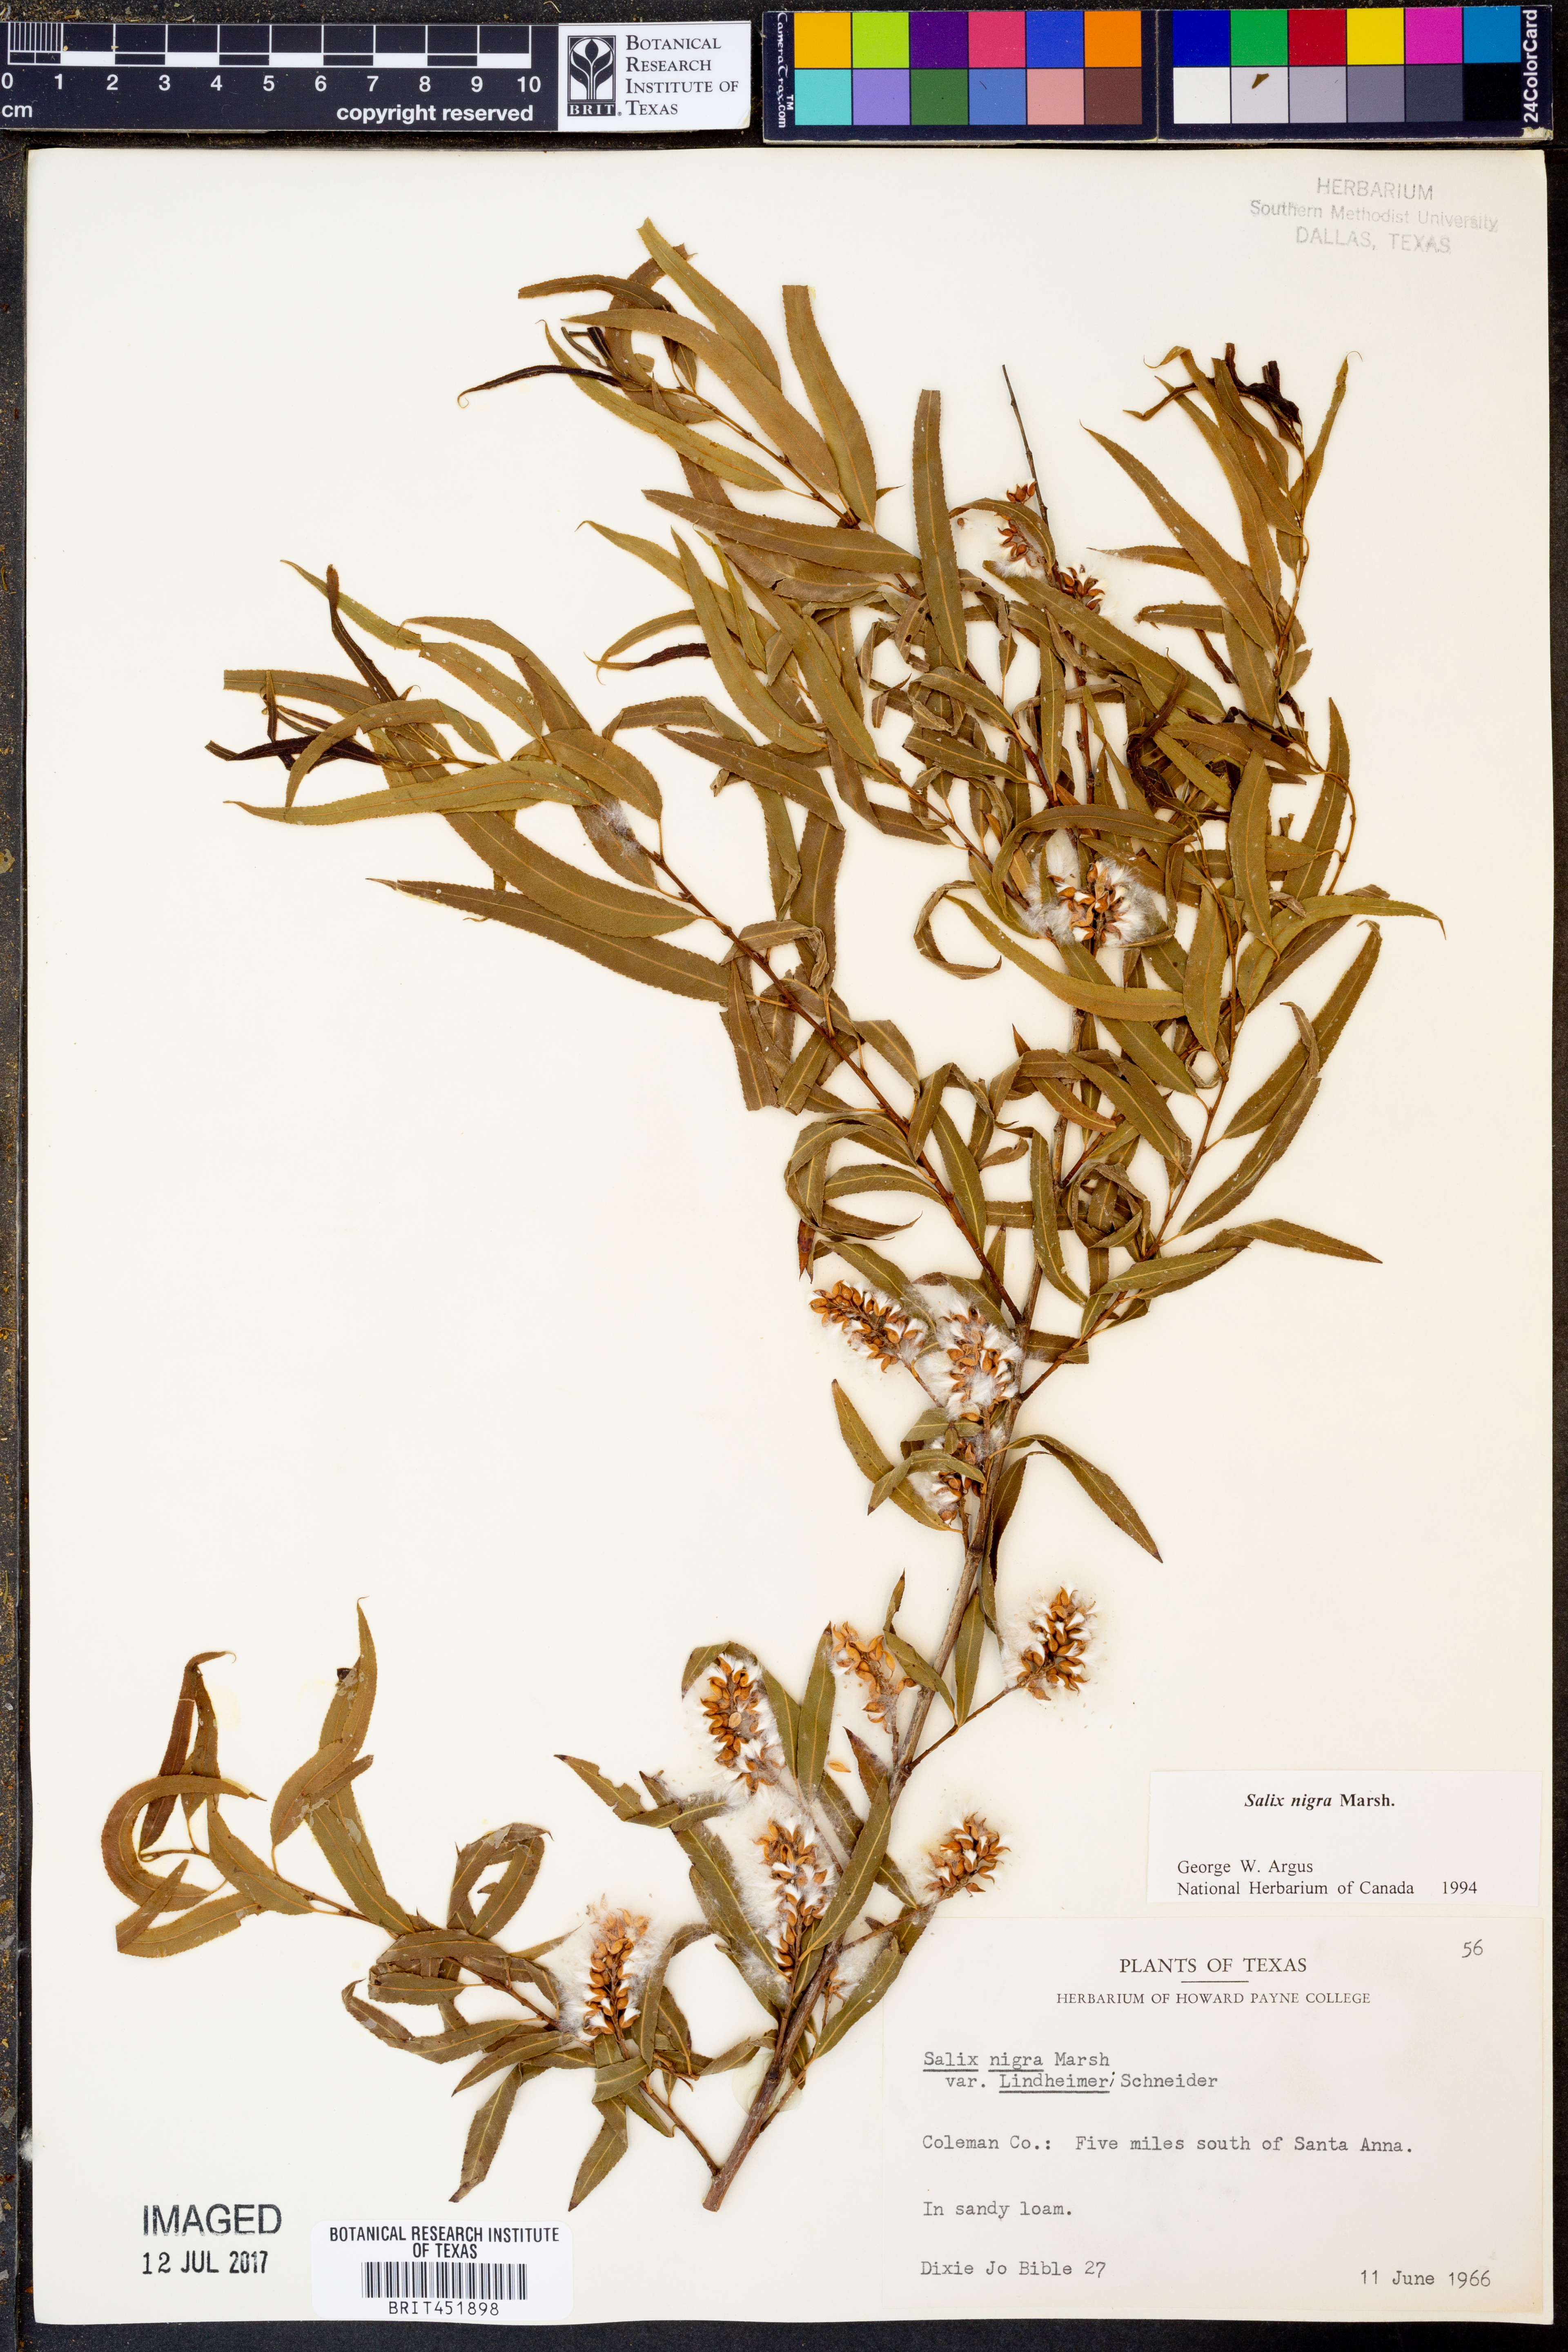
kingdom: Plantae
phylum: Tracheophyta
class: Magnoliopsida
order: Malpighiales
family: Salicaceae
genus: Salix
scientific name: Salix nigra
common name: Black willow
